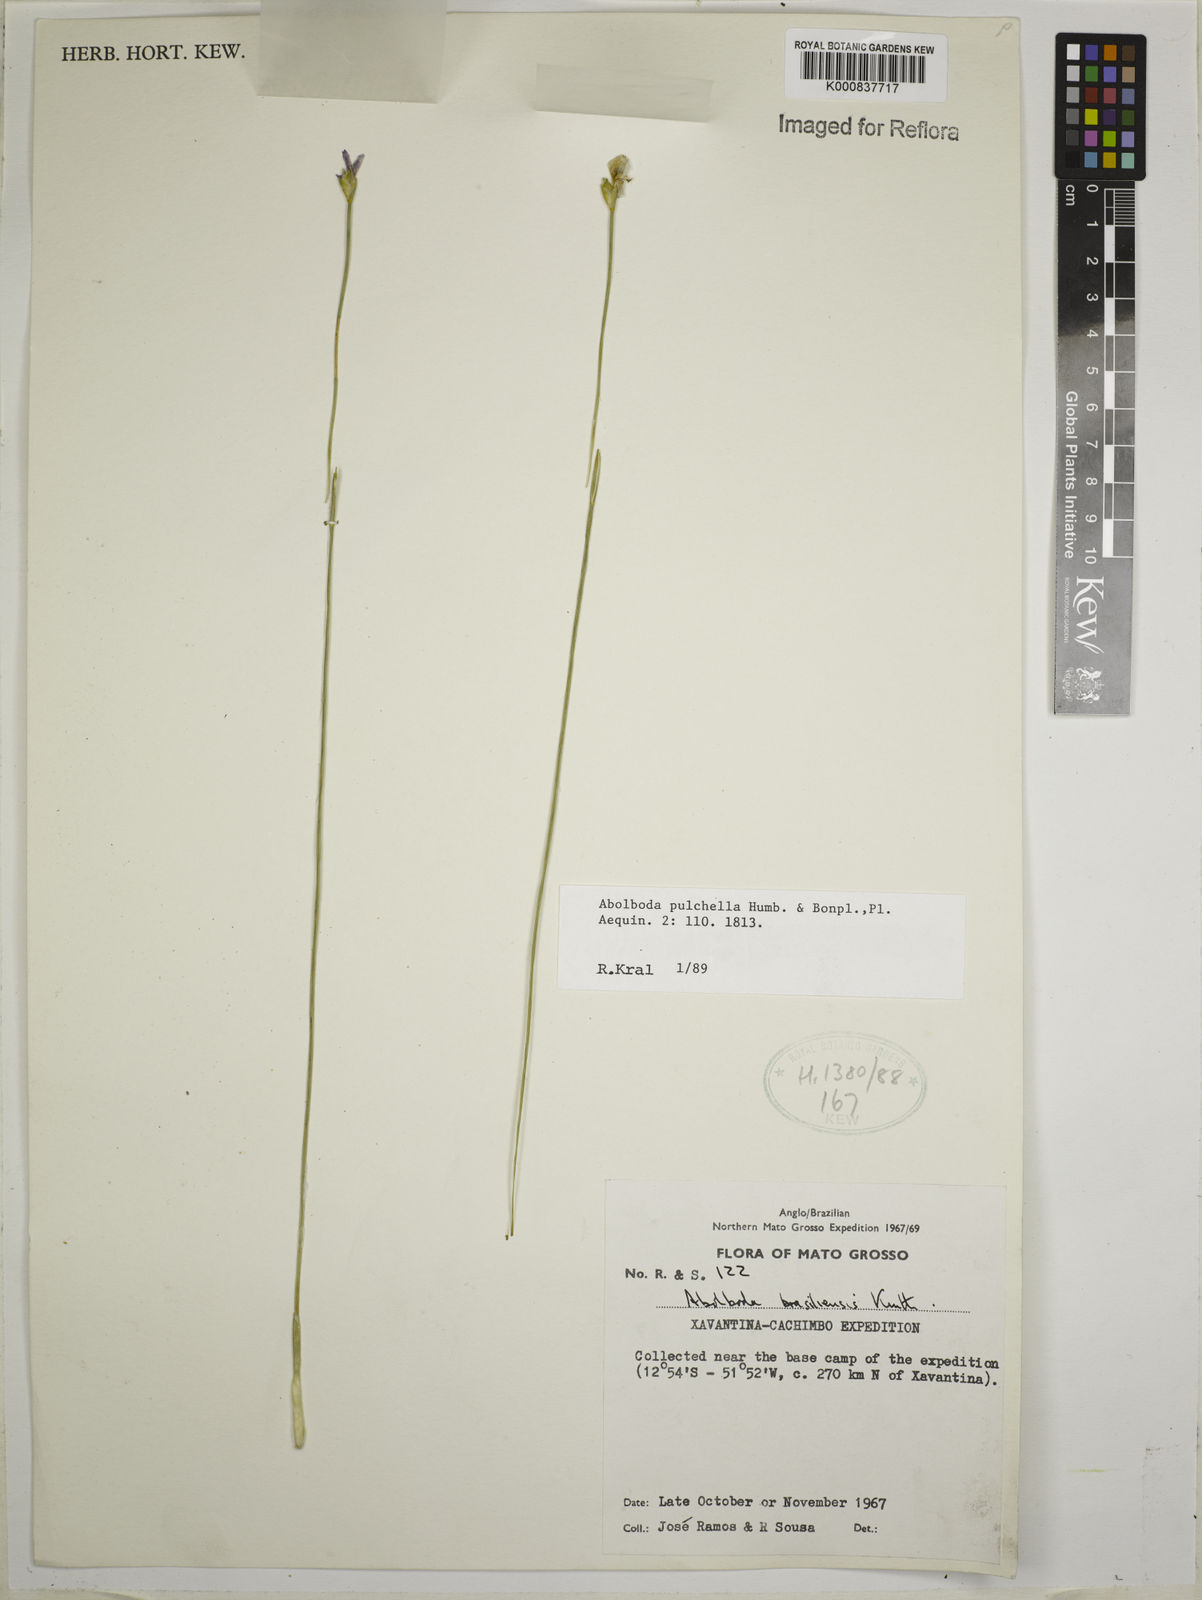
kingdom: Plantae
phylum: Tracheophyta
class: Liliopsida
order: Poales
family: Xyridaceae
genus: Abolboda
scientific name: Abolboda pulchella
